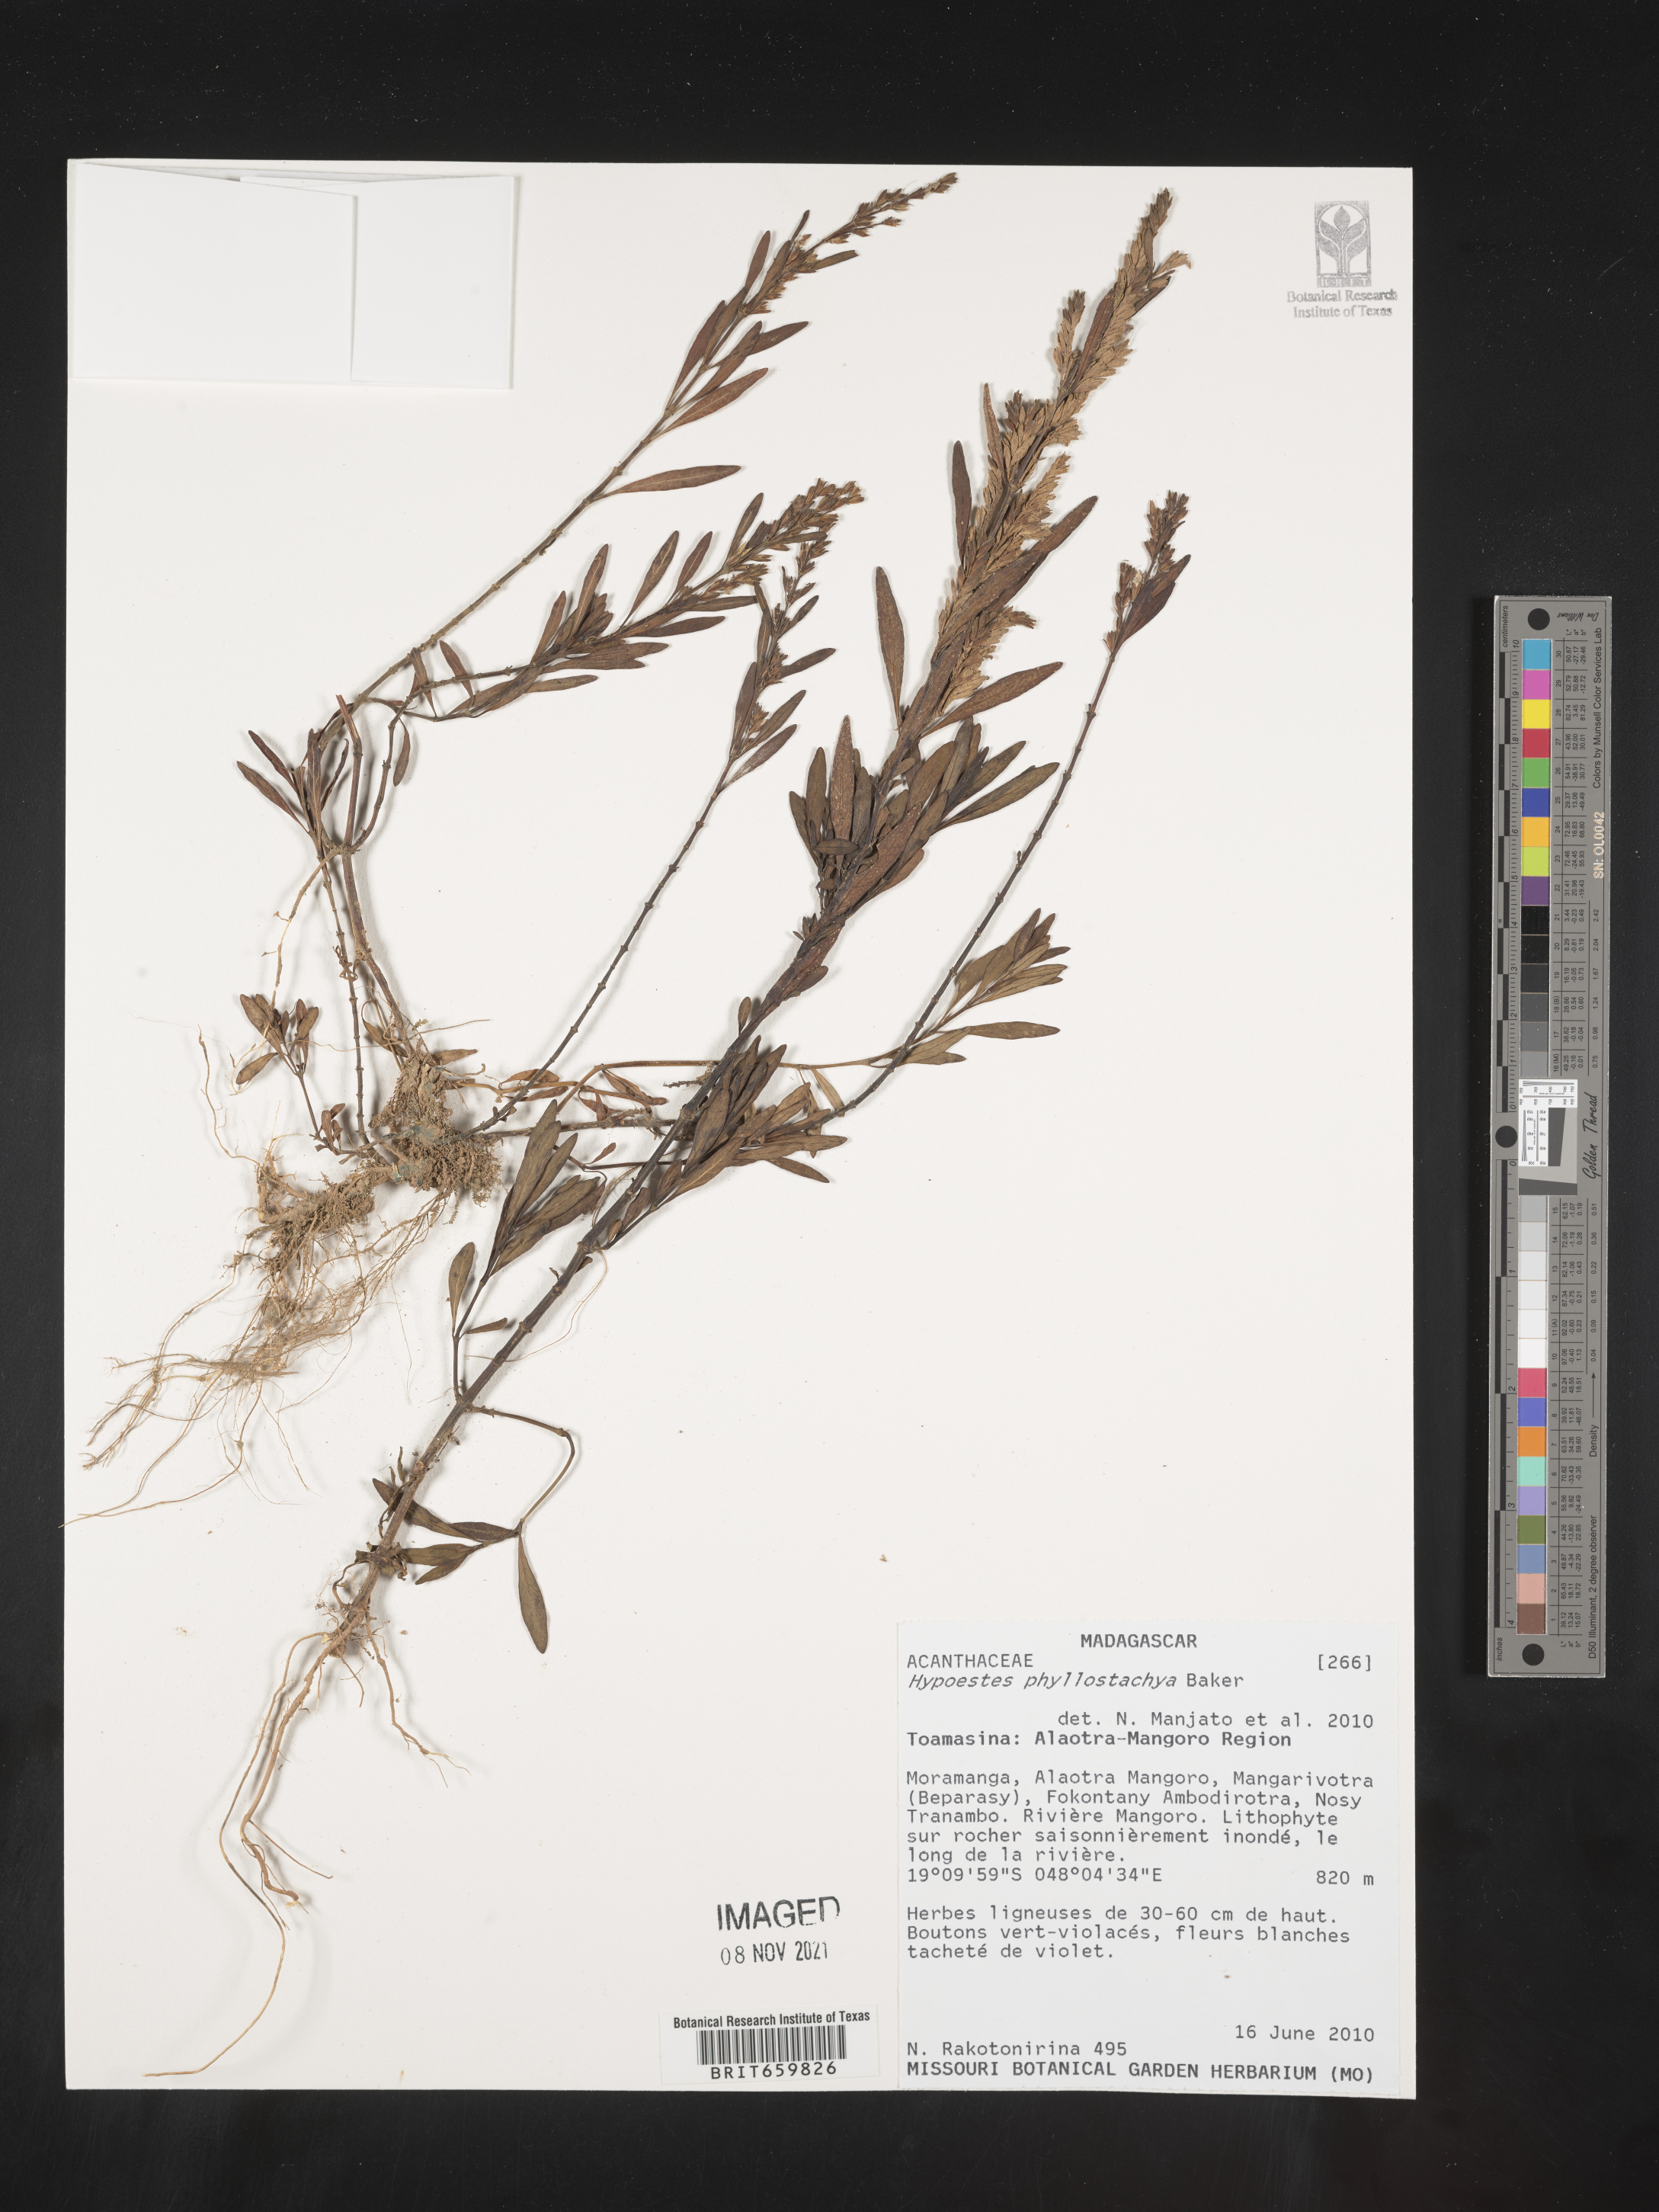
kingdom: Plantae
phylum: Tracheophyta
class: Magnoliopsida
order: Lamiales
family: Acanthaceae
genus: Hypoestes
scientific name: Hypoestes phyllostachya
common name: Polkadot-plant
